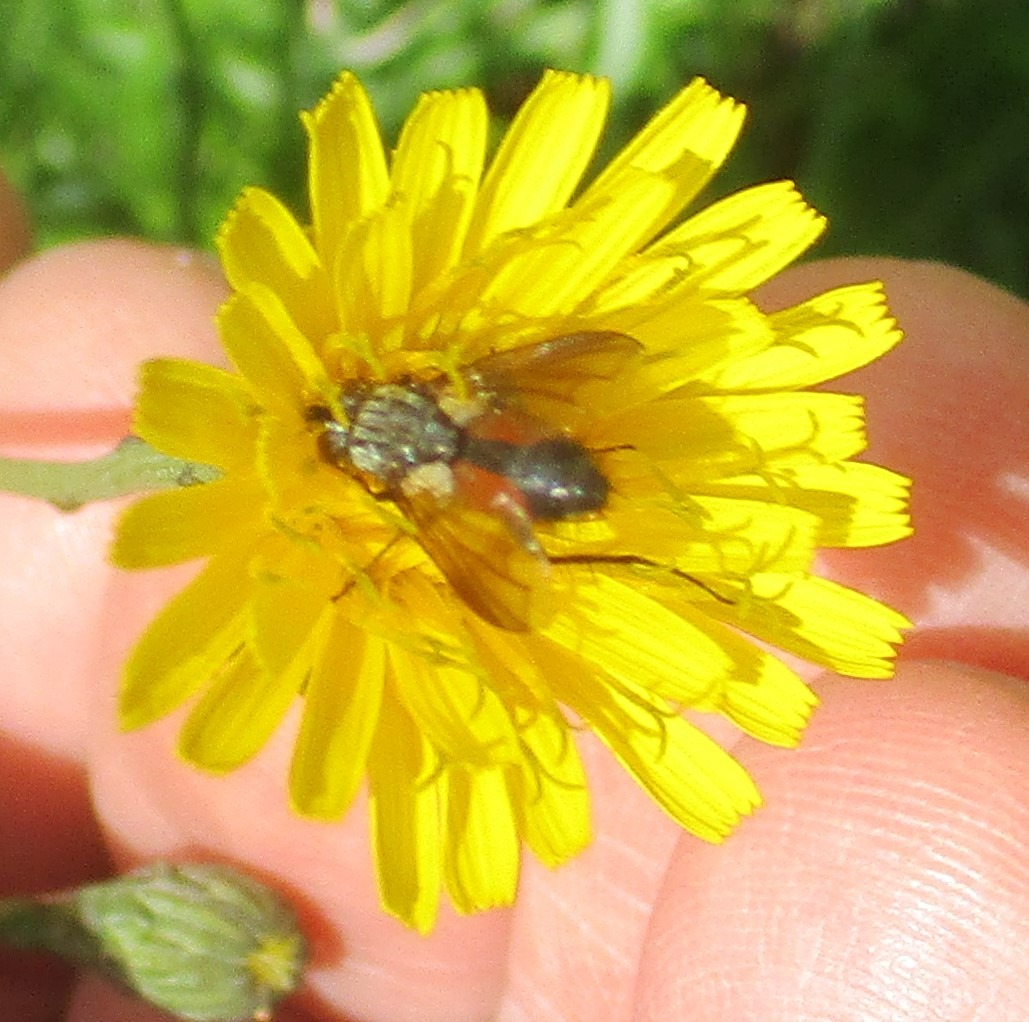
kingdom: Animalia
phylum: Arthropoda
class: Insecta
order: Diptera
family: Tachinidae
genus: Eriothrix
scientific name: Eriothrix rufomaculatus
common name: Rød snylteflue
